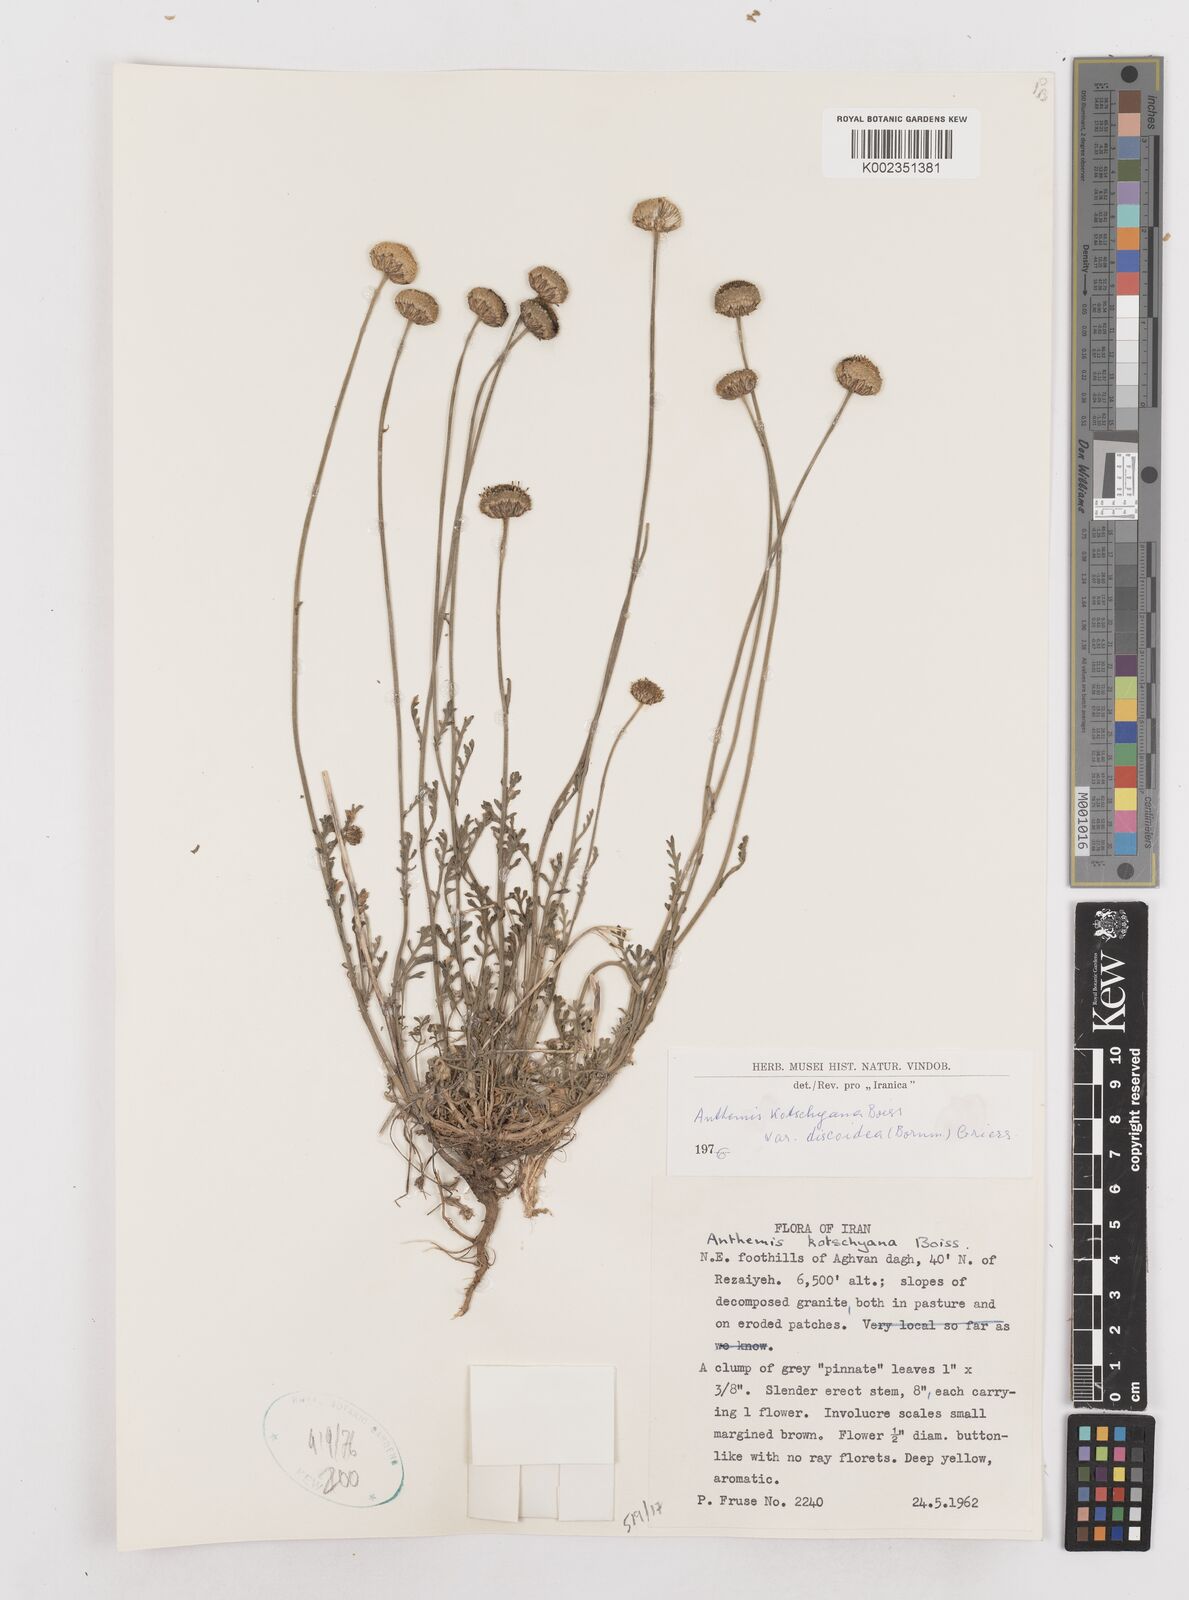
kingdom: Plantae
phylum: Tracheophyta
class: Magnoliopsida
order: Asterales
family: Asteraceae
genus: Anthemis
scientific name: Anthemis kotschyana
